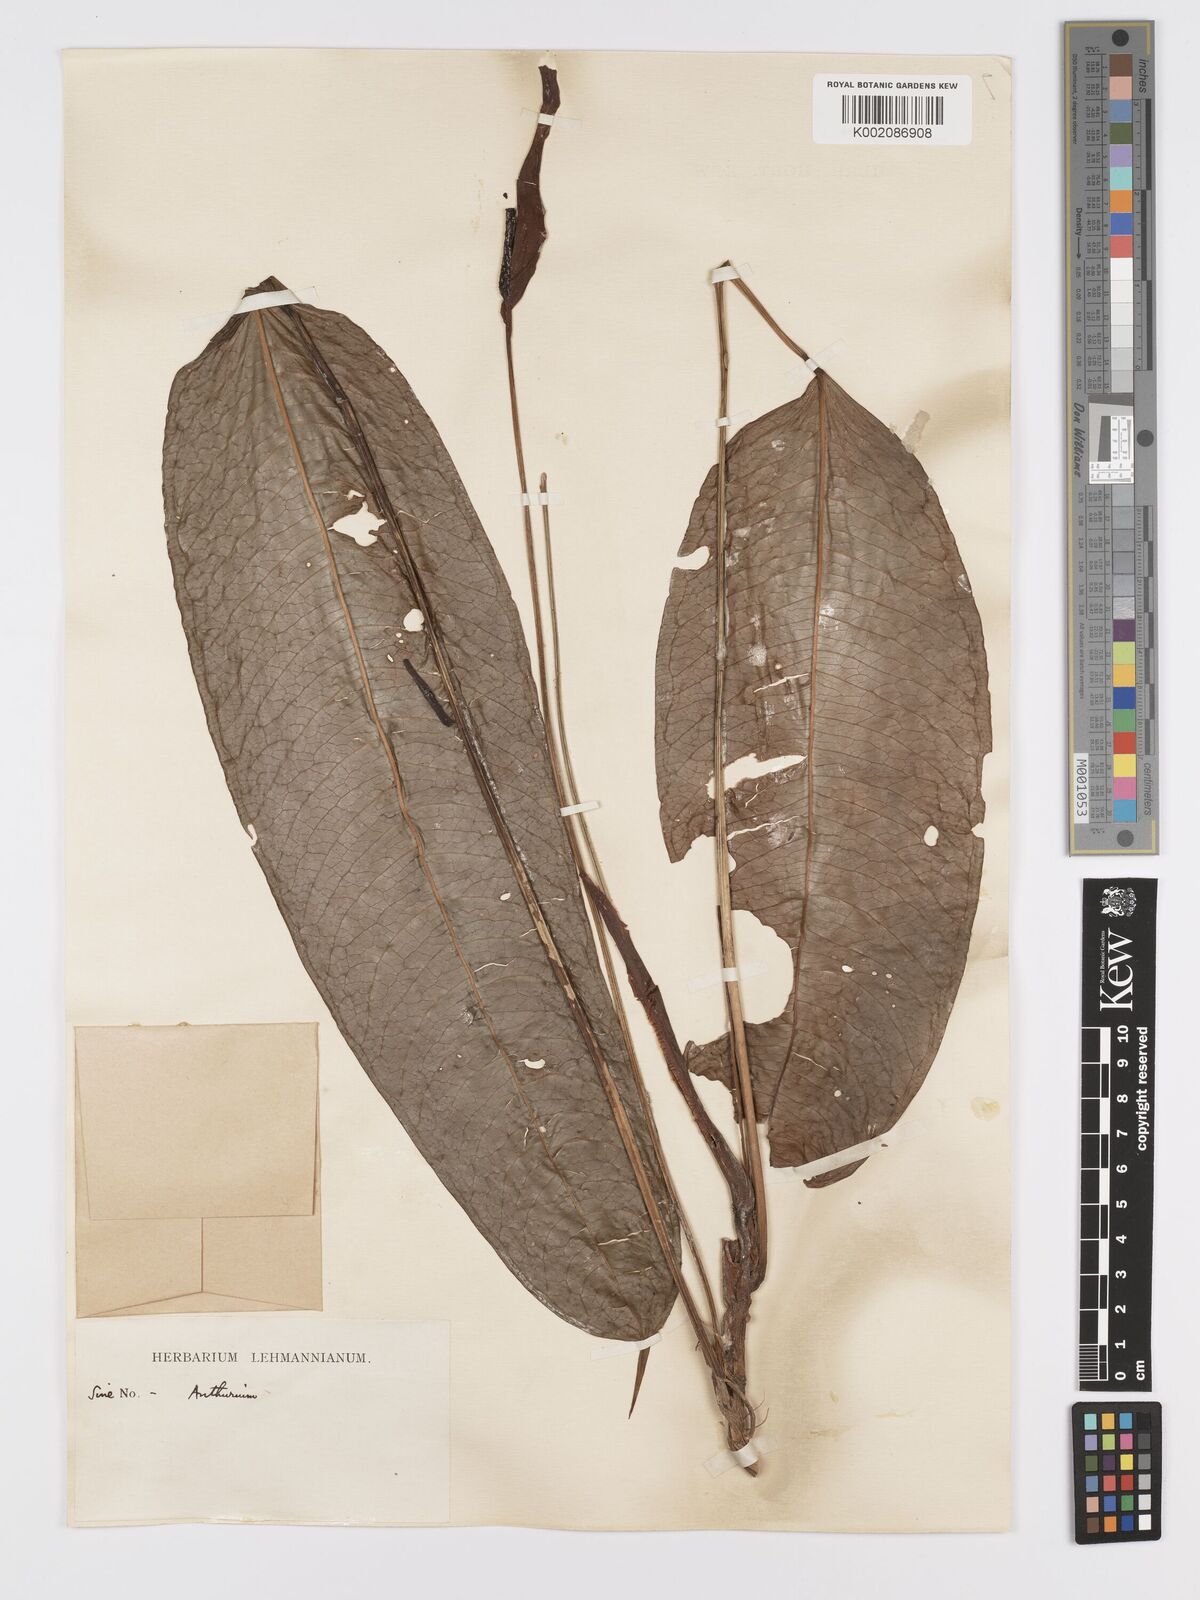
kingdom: Plantae
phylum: Tracheophyta
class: Liliopsida
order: Alismatales
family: Araceae
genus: Anthurium
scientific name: Anthurium reticulatum
